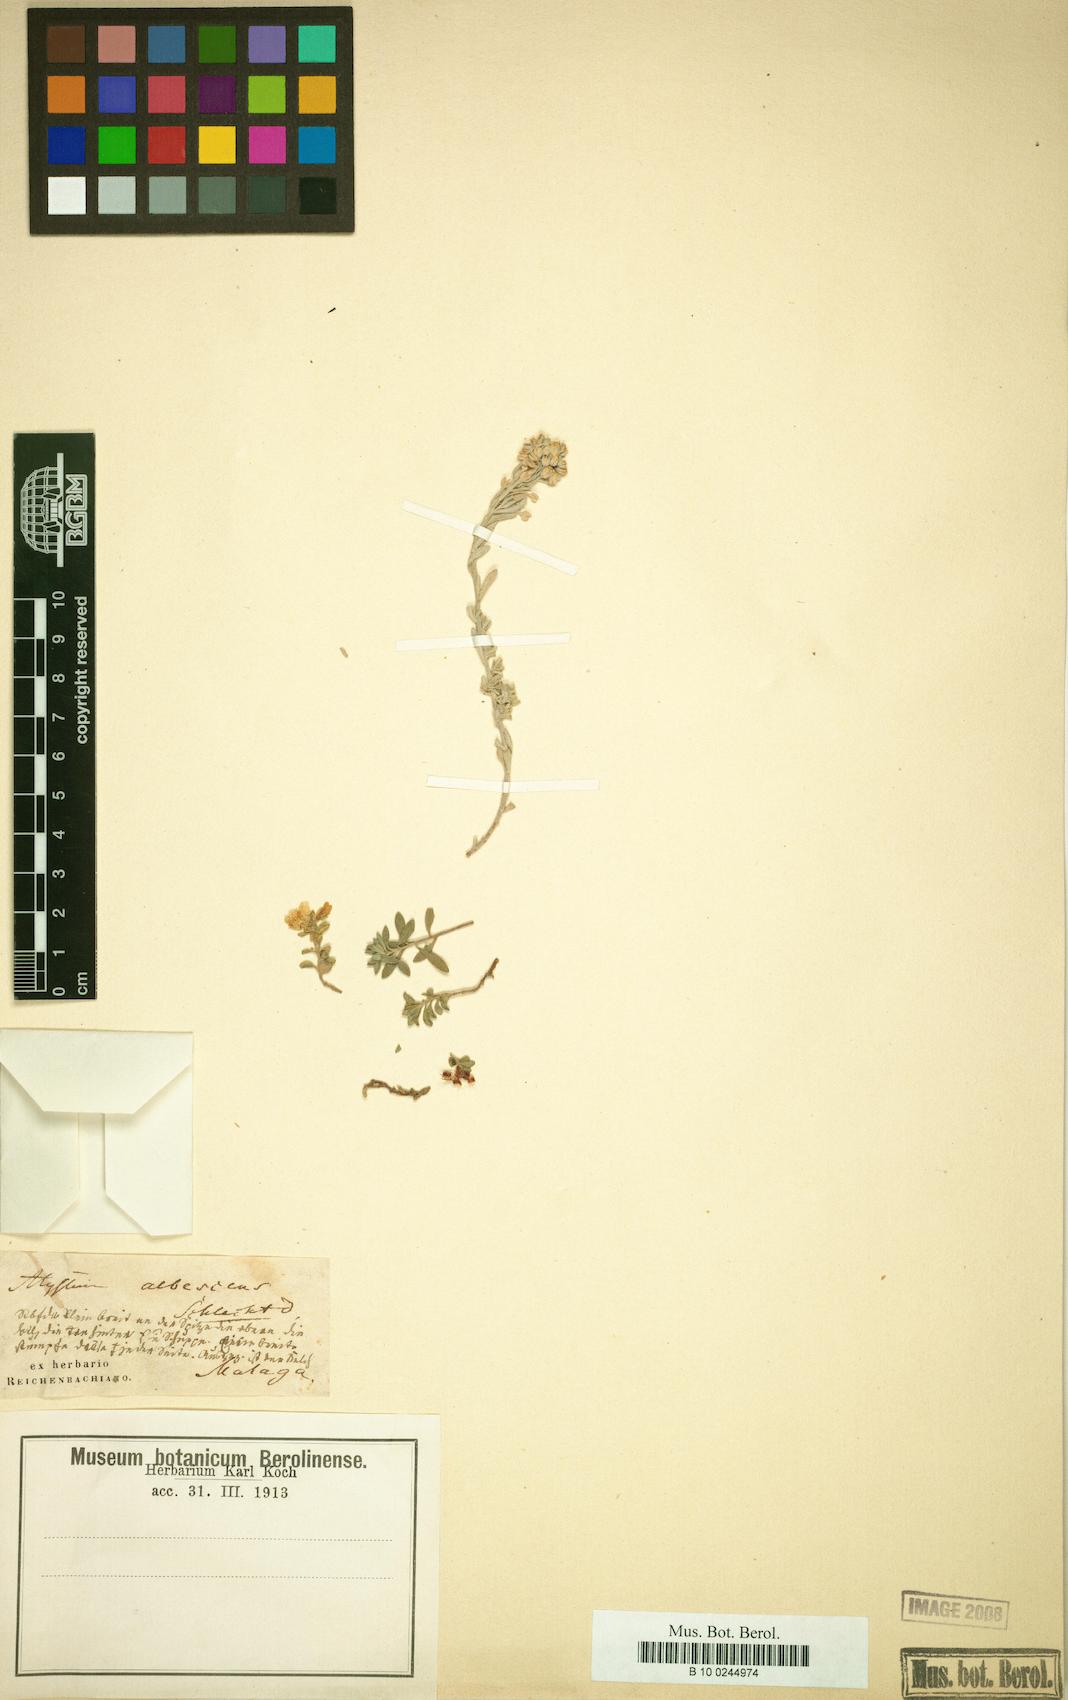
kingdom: Plantae
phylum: Tracheophyta
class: Magnoliopsida
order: Brassicales
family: Brassicaceae
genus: Alyssum
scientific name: Alyssum montanum
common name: Mountain alison
